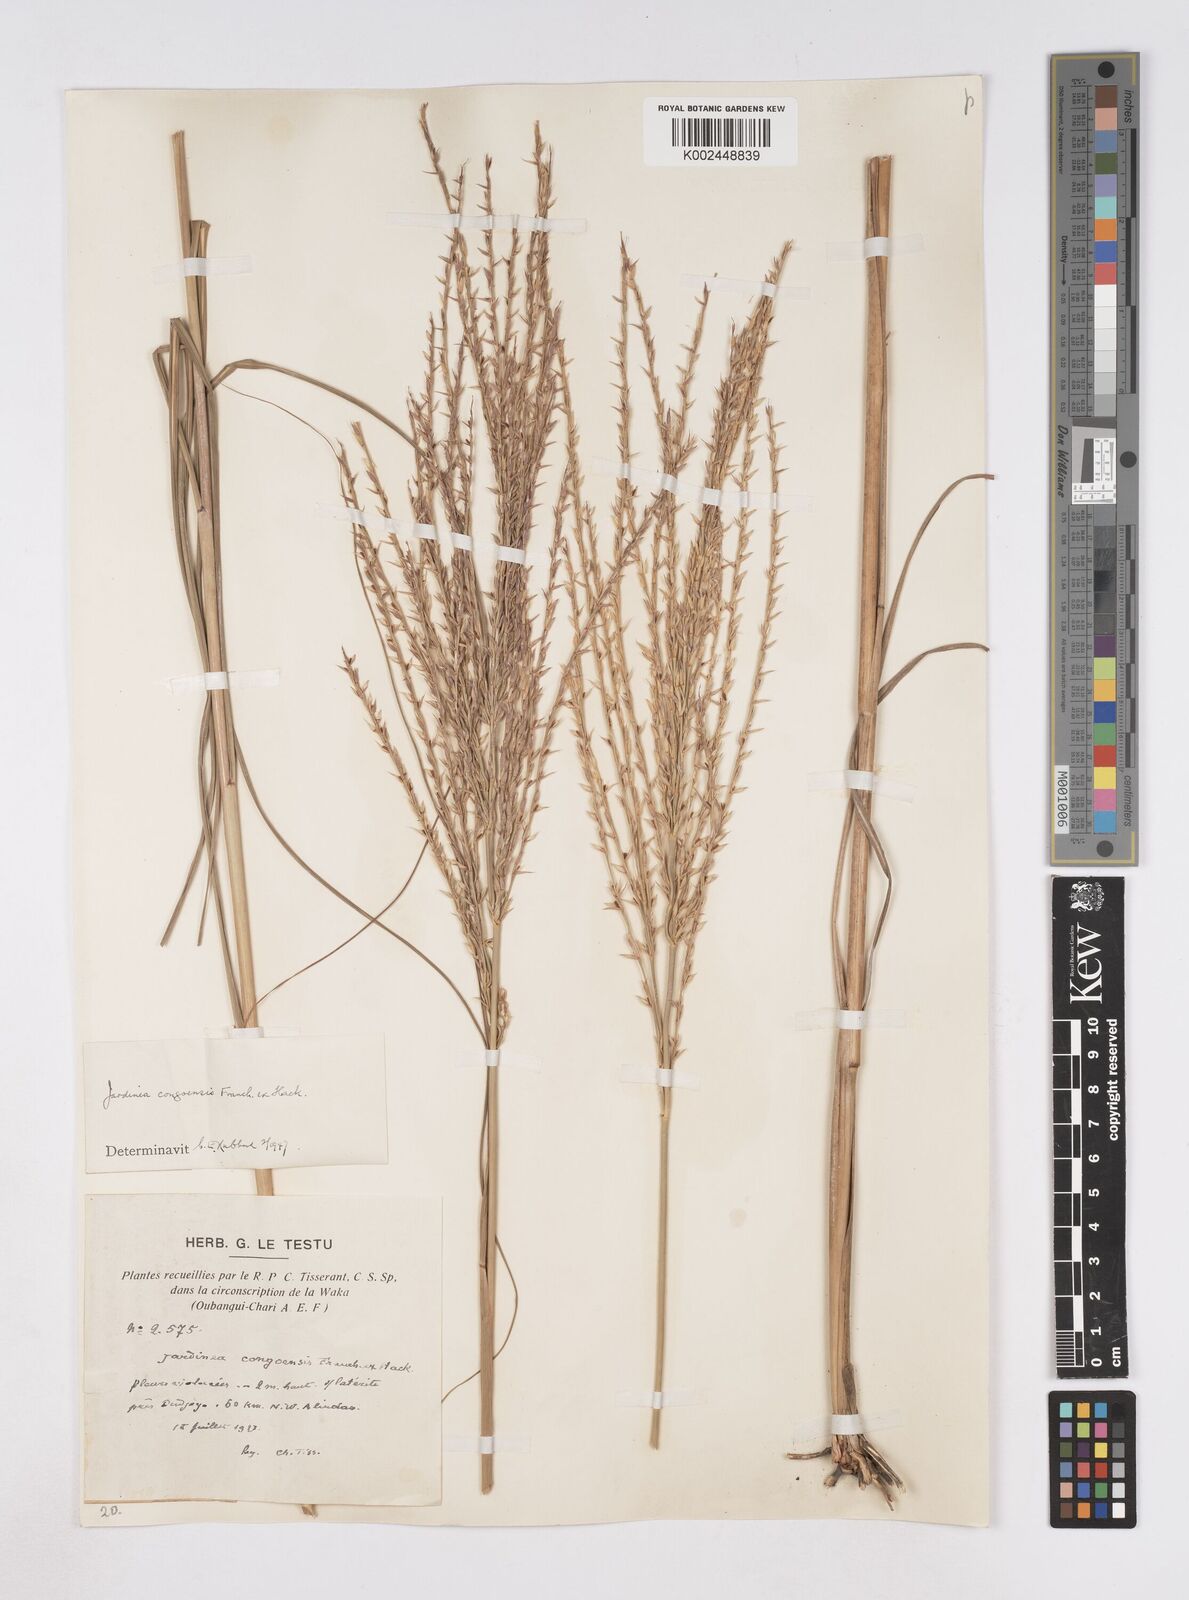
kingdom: Plantae
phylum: Tracheophyta
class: Liliopsida
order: Poales
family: Poaceae
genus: Phacelurus
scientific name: Phacelurus gabonensis
